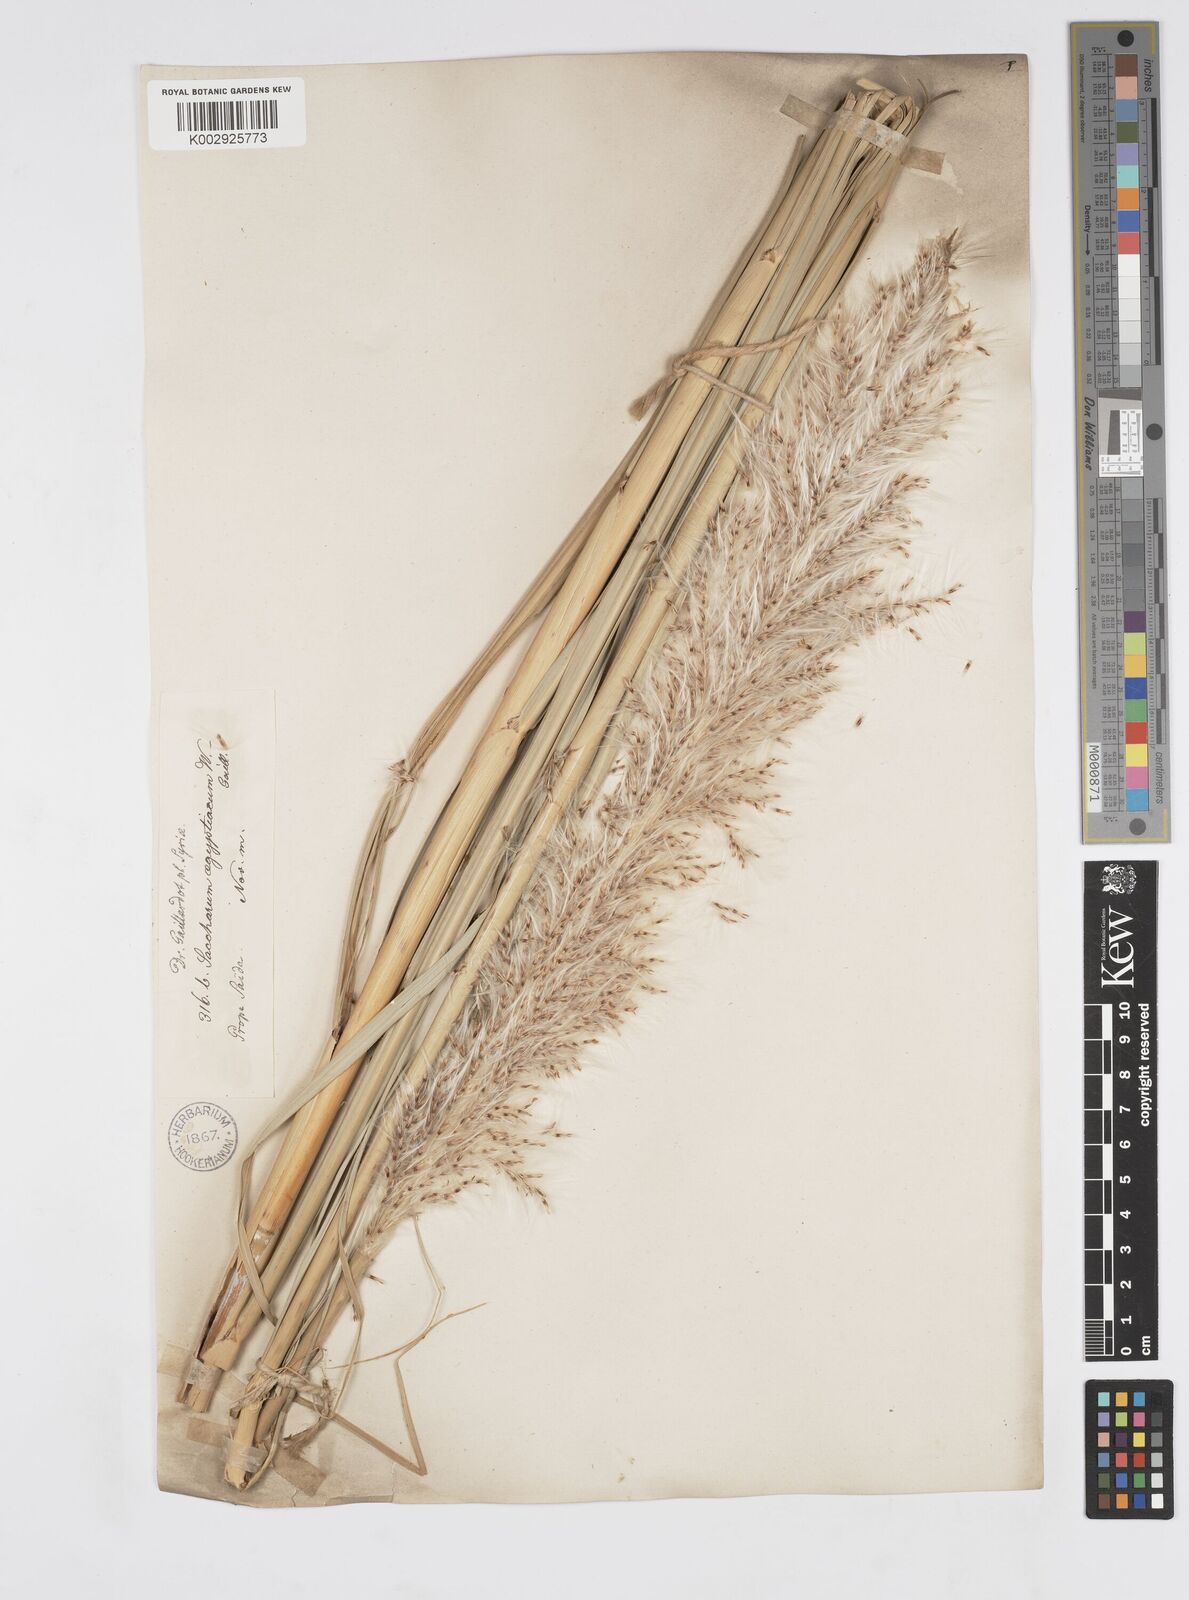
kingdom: Plantae
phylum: Tracheophyta
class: Liliopsida
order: Poales
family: Poaceae
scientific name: Poaceae
